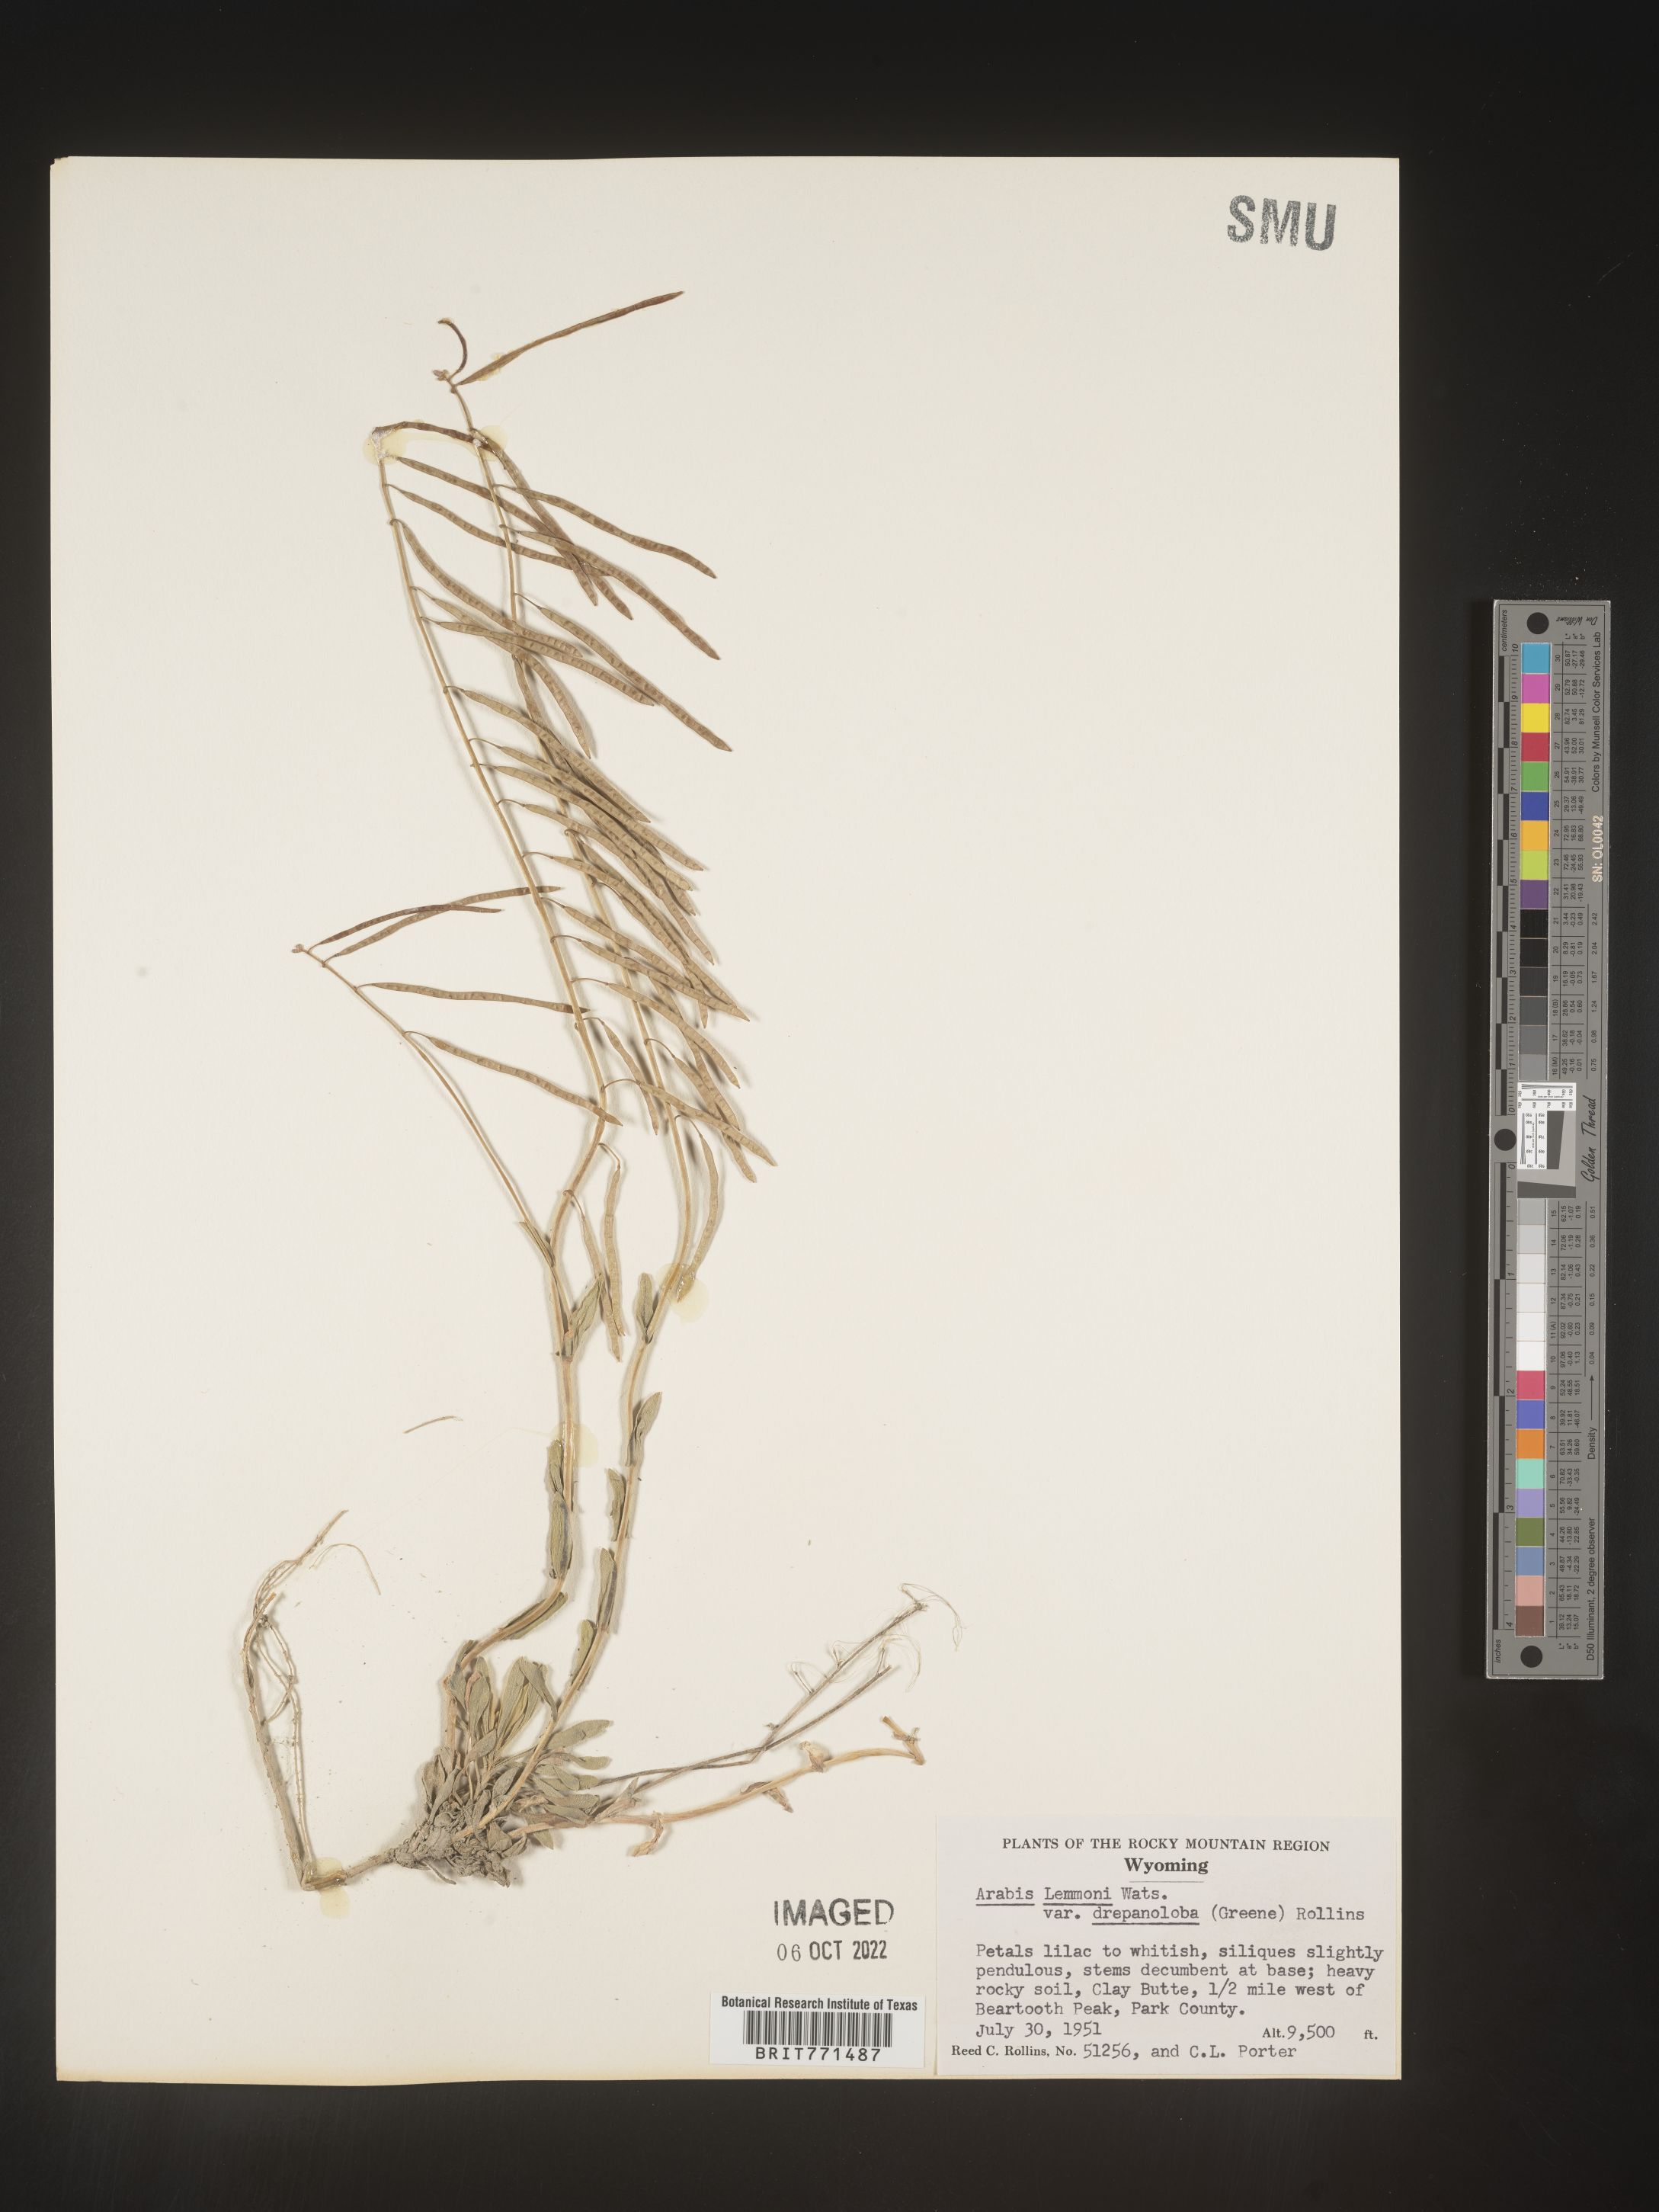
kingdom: Plantae
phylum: Tracheophyta
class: Magnoliopsida
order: Brassicales
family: Brassicaceae
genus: Arabis
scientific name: Arabis
